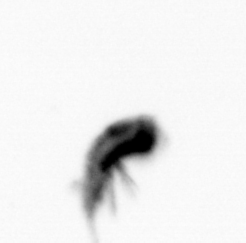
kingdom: Animalia
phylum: Arthropoda
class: Copepoda
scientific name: Copepoda
